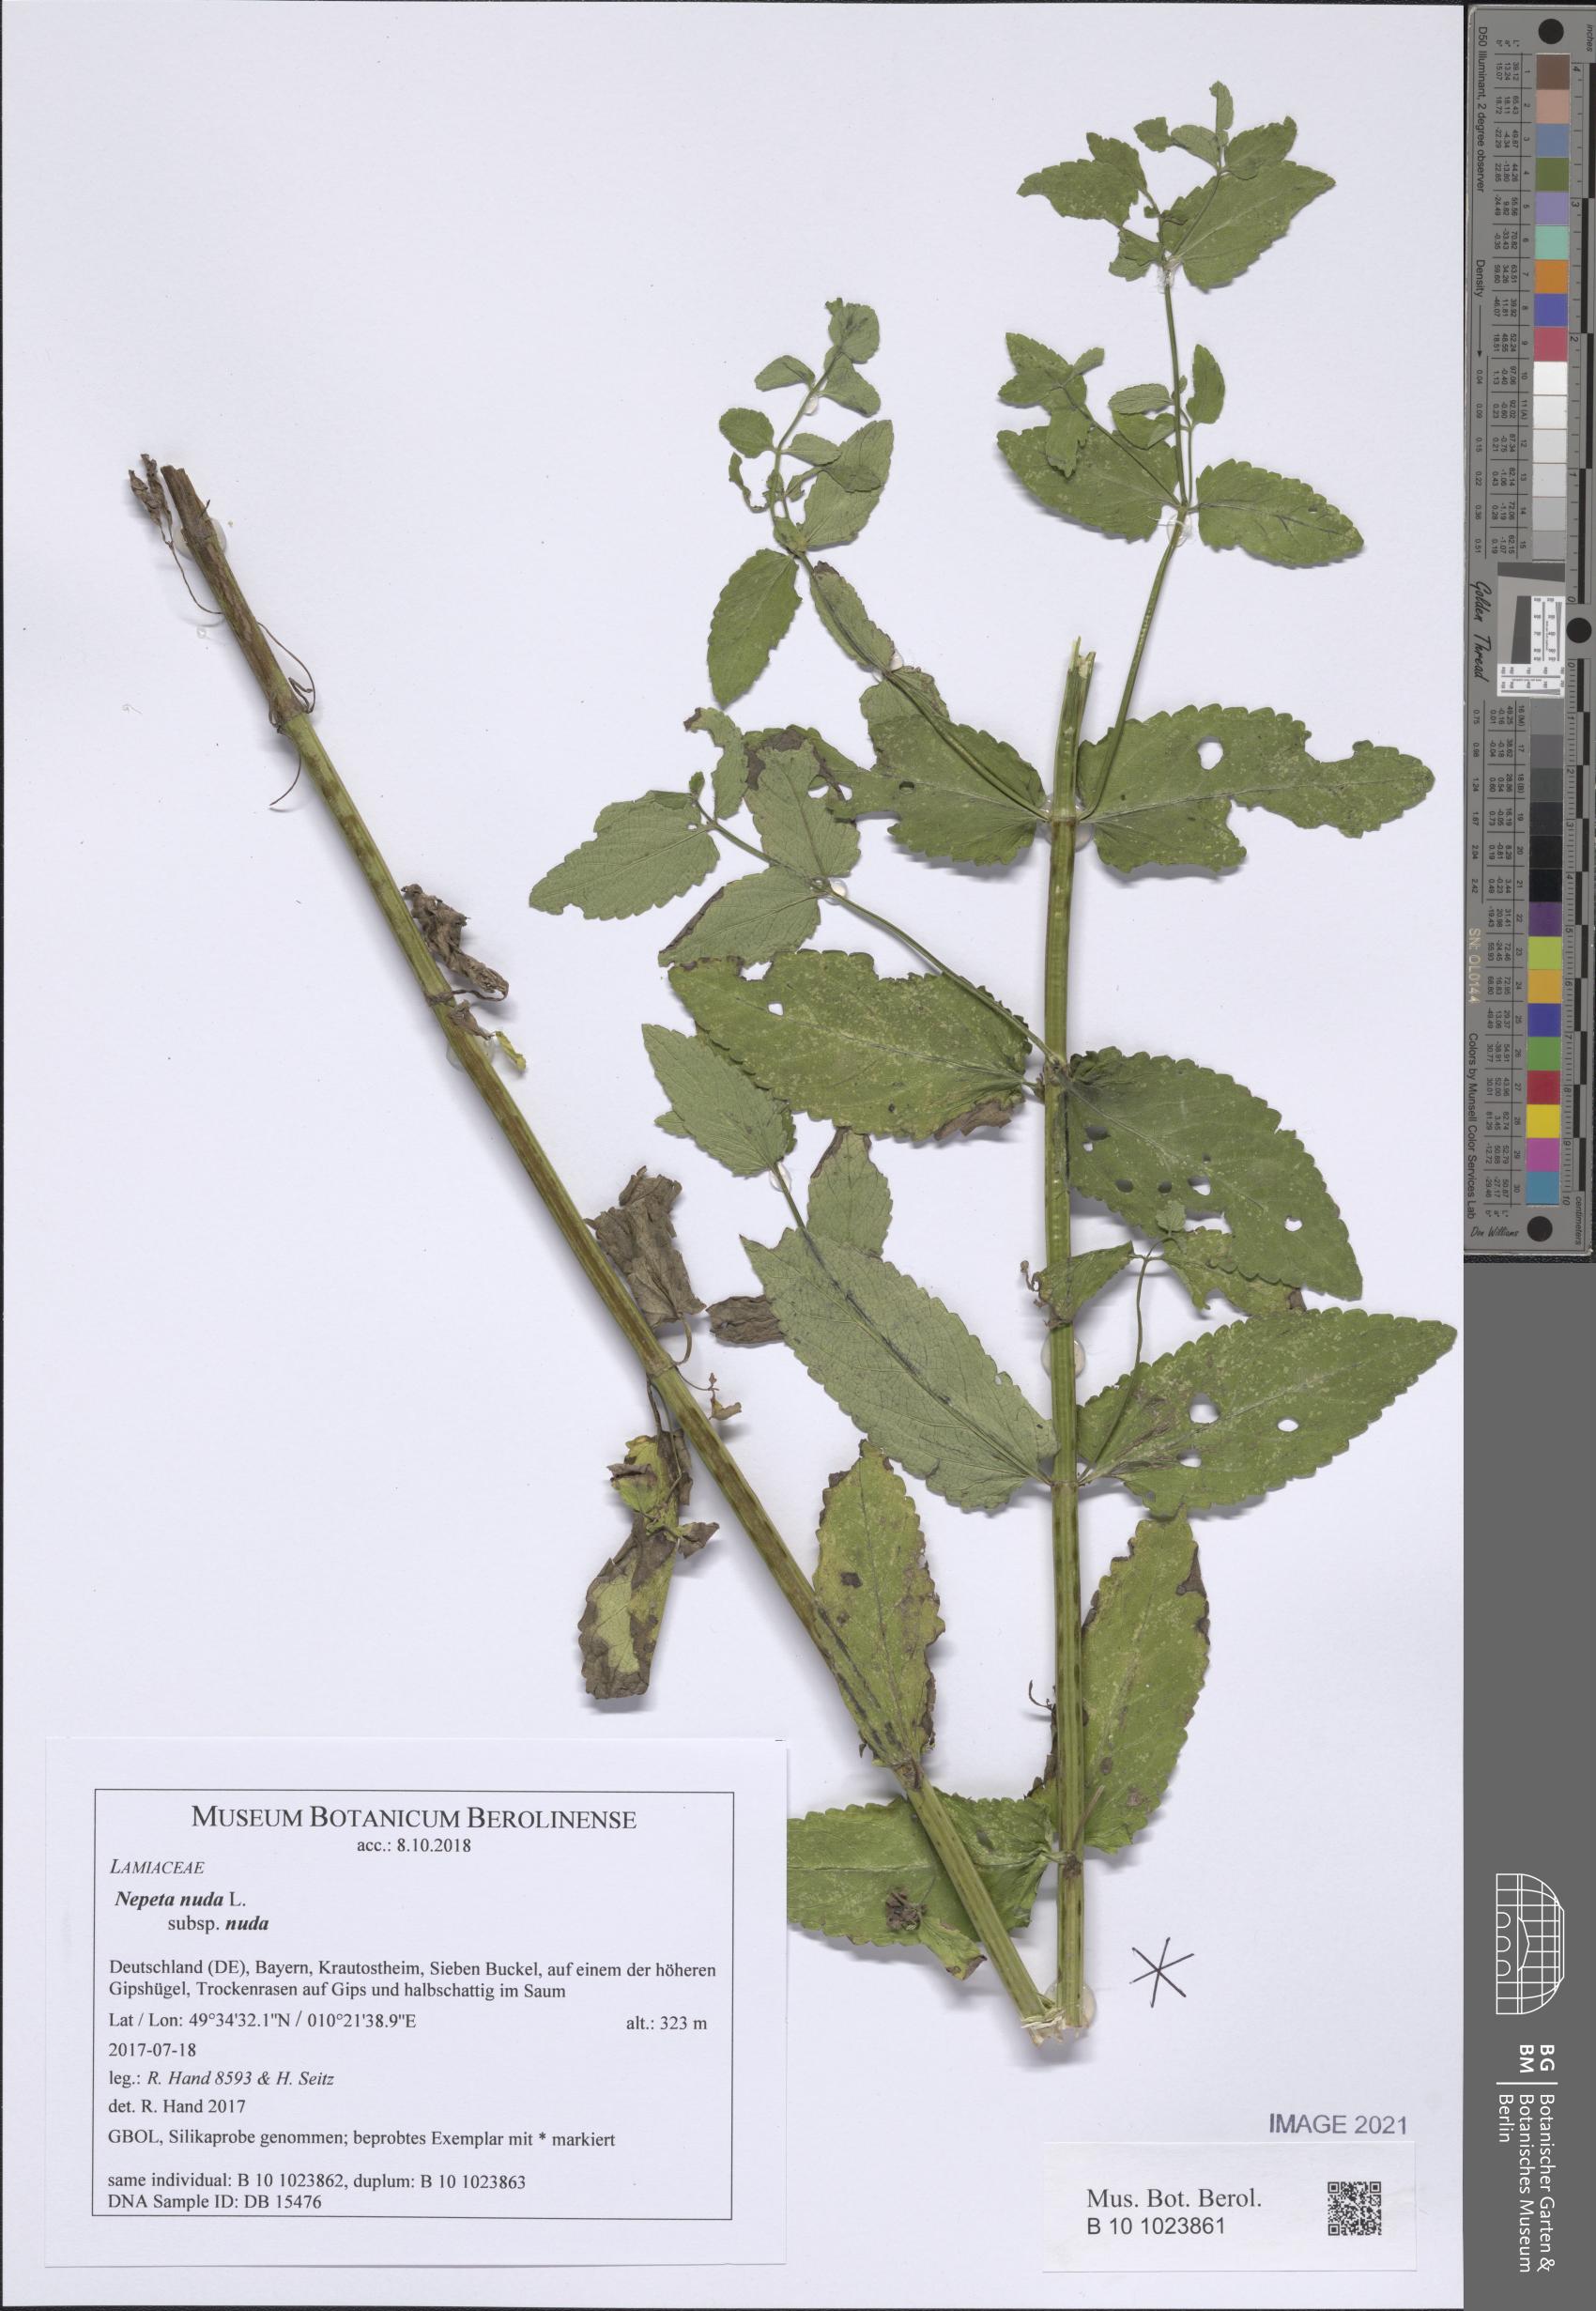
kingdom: Plantae
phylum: Tracheophyta
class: Magnoliopsida
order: Lamiales
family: Lamiaceae
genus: Nepeta
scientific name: Nepeta nuda
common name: Hairless catmint
